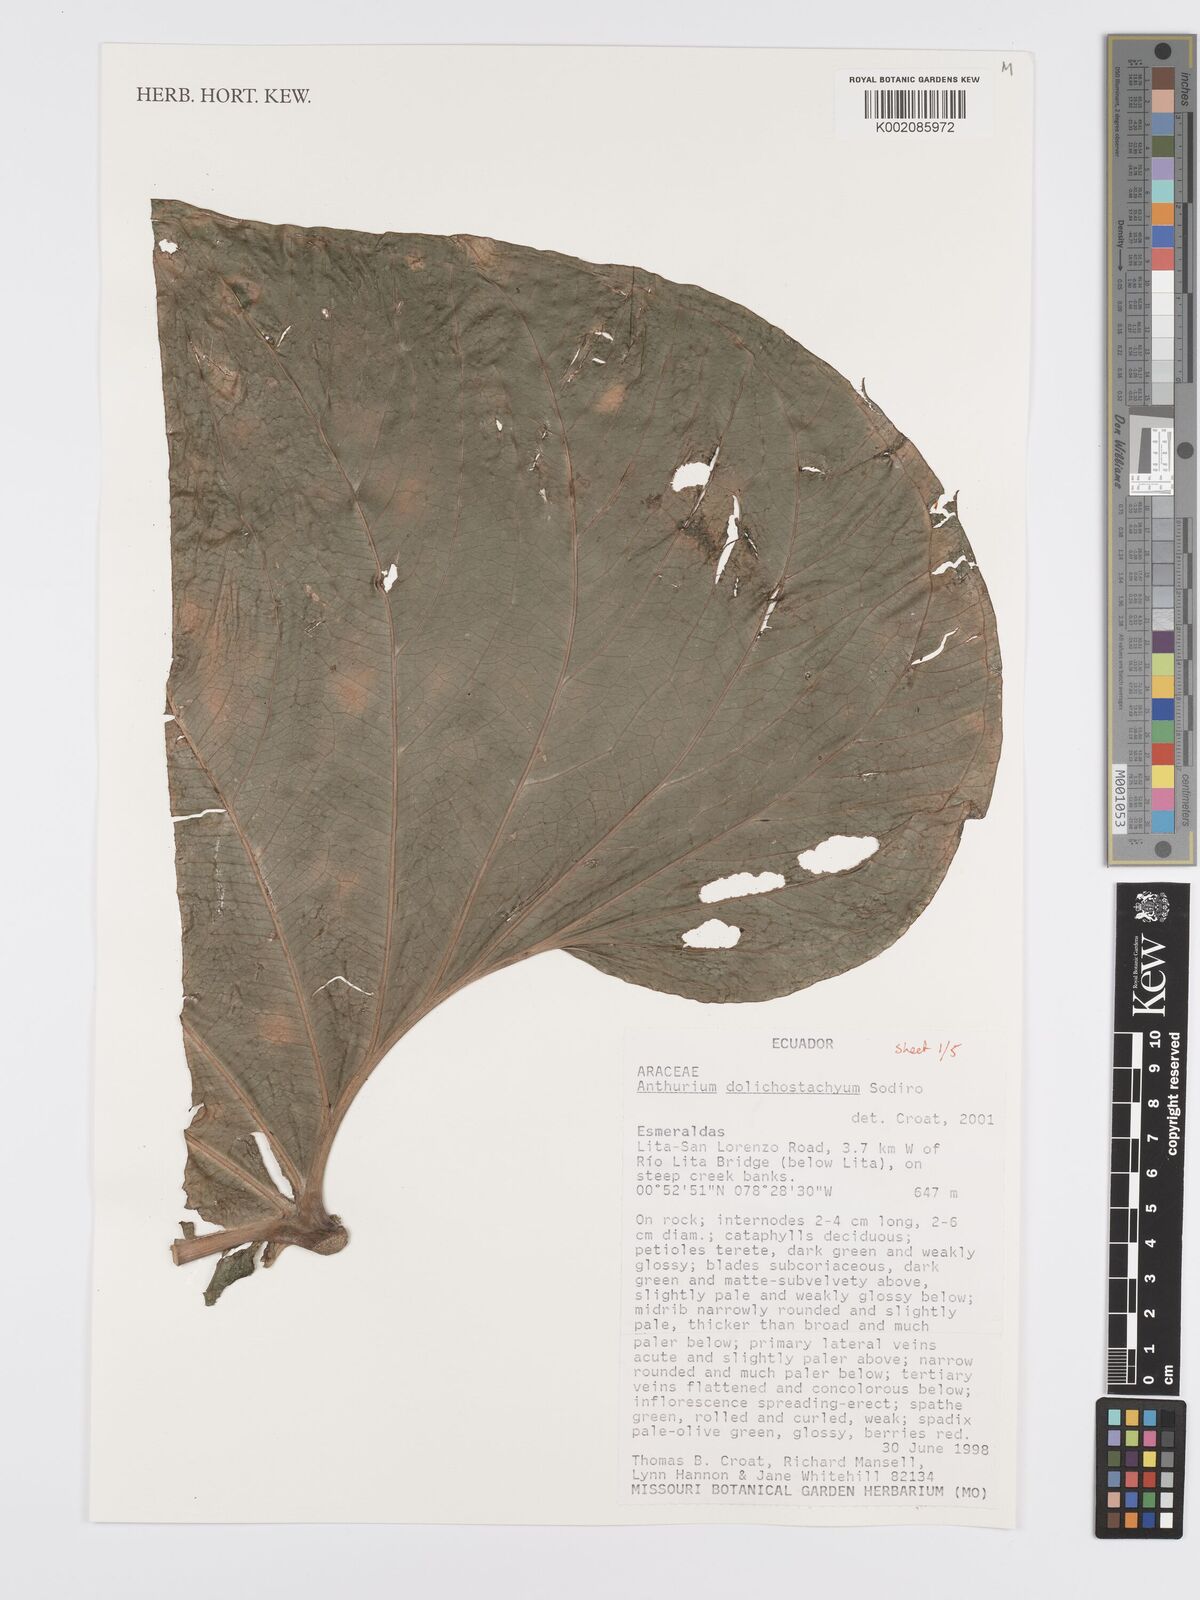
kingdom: Plantae
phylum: Tracheophyta
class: Liliopsida
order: Alismatales
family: Araceae
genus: Anthurium
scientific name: Anthurium dolichostachyum
